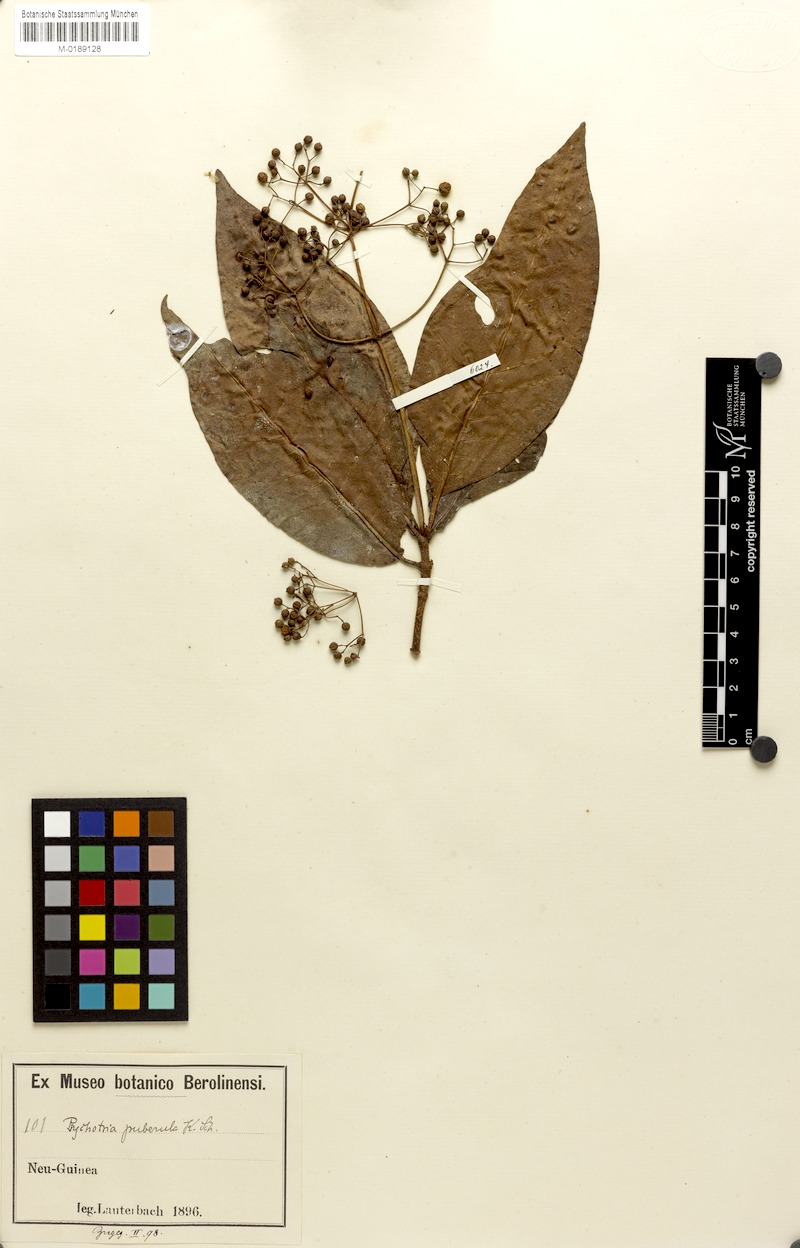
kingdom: Plantae
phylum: Tracheophyta
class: Magnoliopsida
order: Gentianales
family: Rubiaceae
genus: Psychotria
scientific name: Psychotria micrococca
